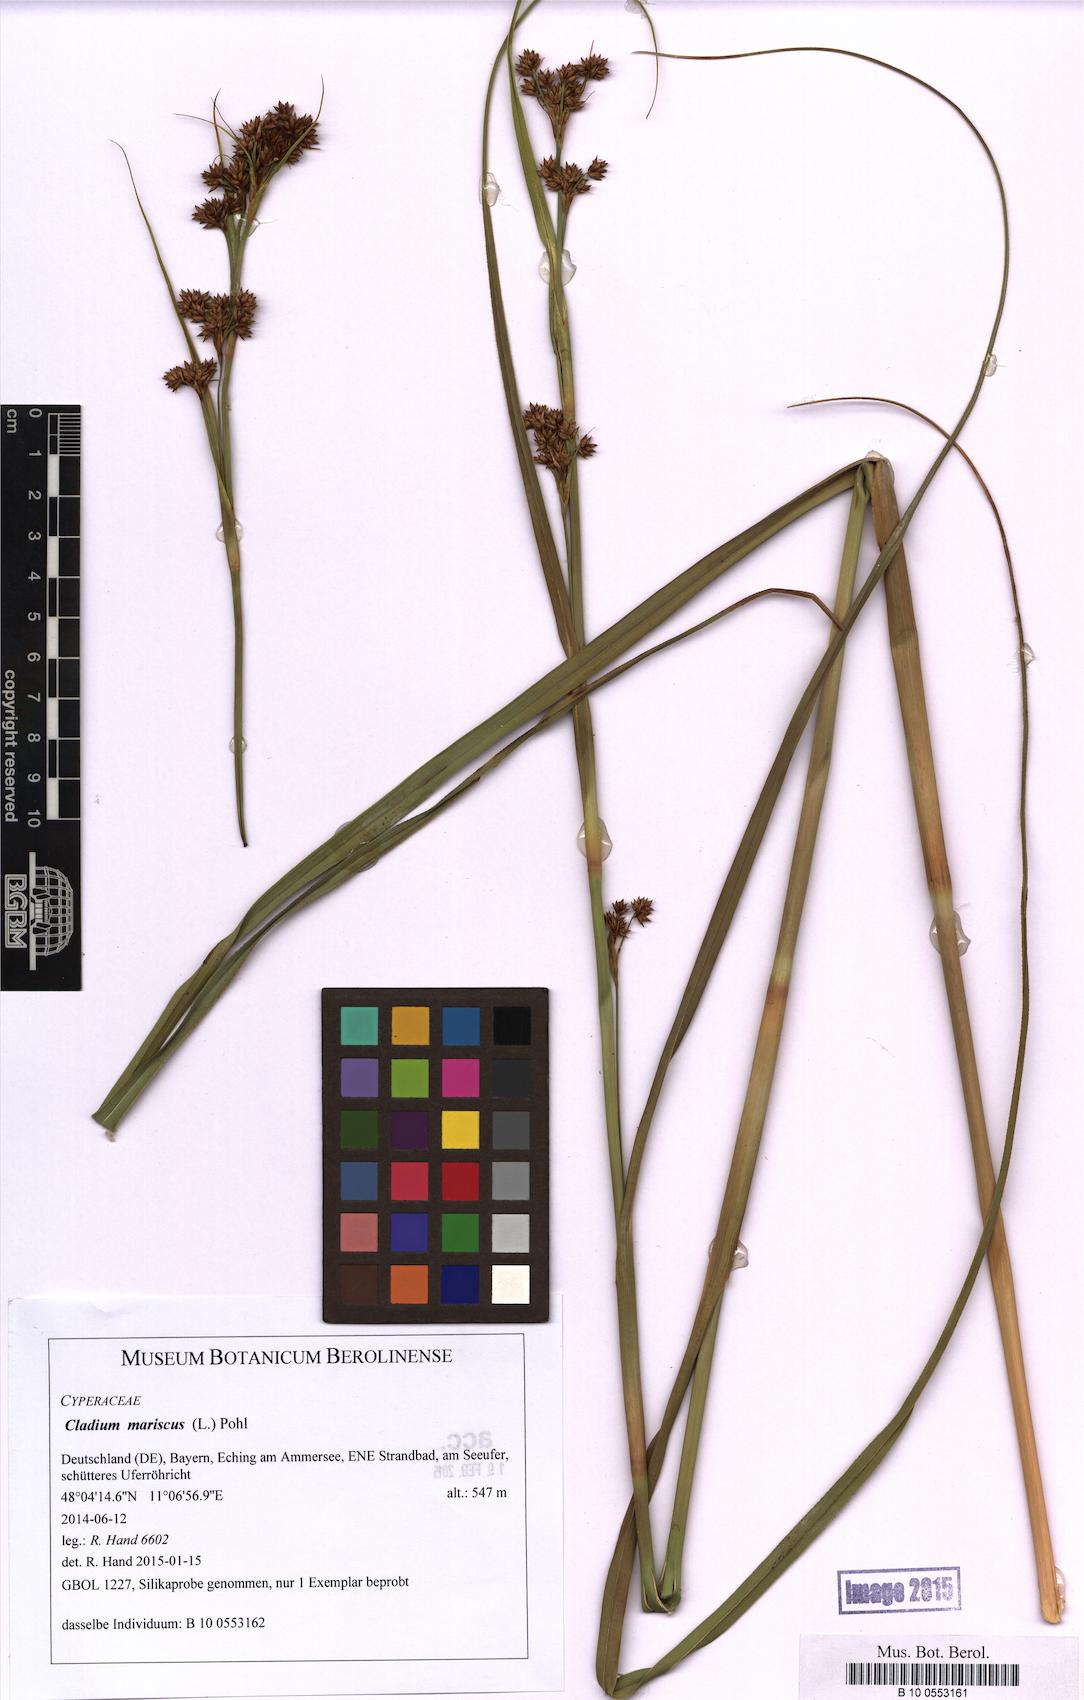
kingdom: Plantae
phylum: Tracheophyta
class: Liliopsida
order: Poales
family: Cyperaceae
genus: Cladium
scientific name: Cladium mariscus
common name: Great fen-sedge
